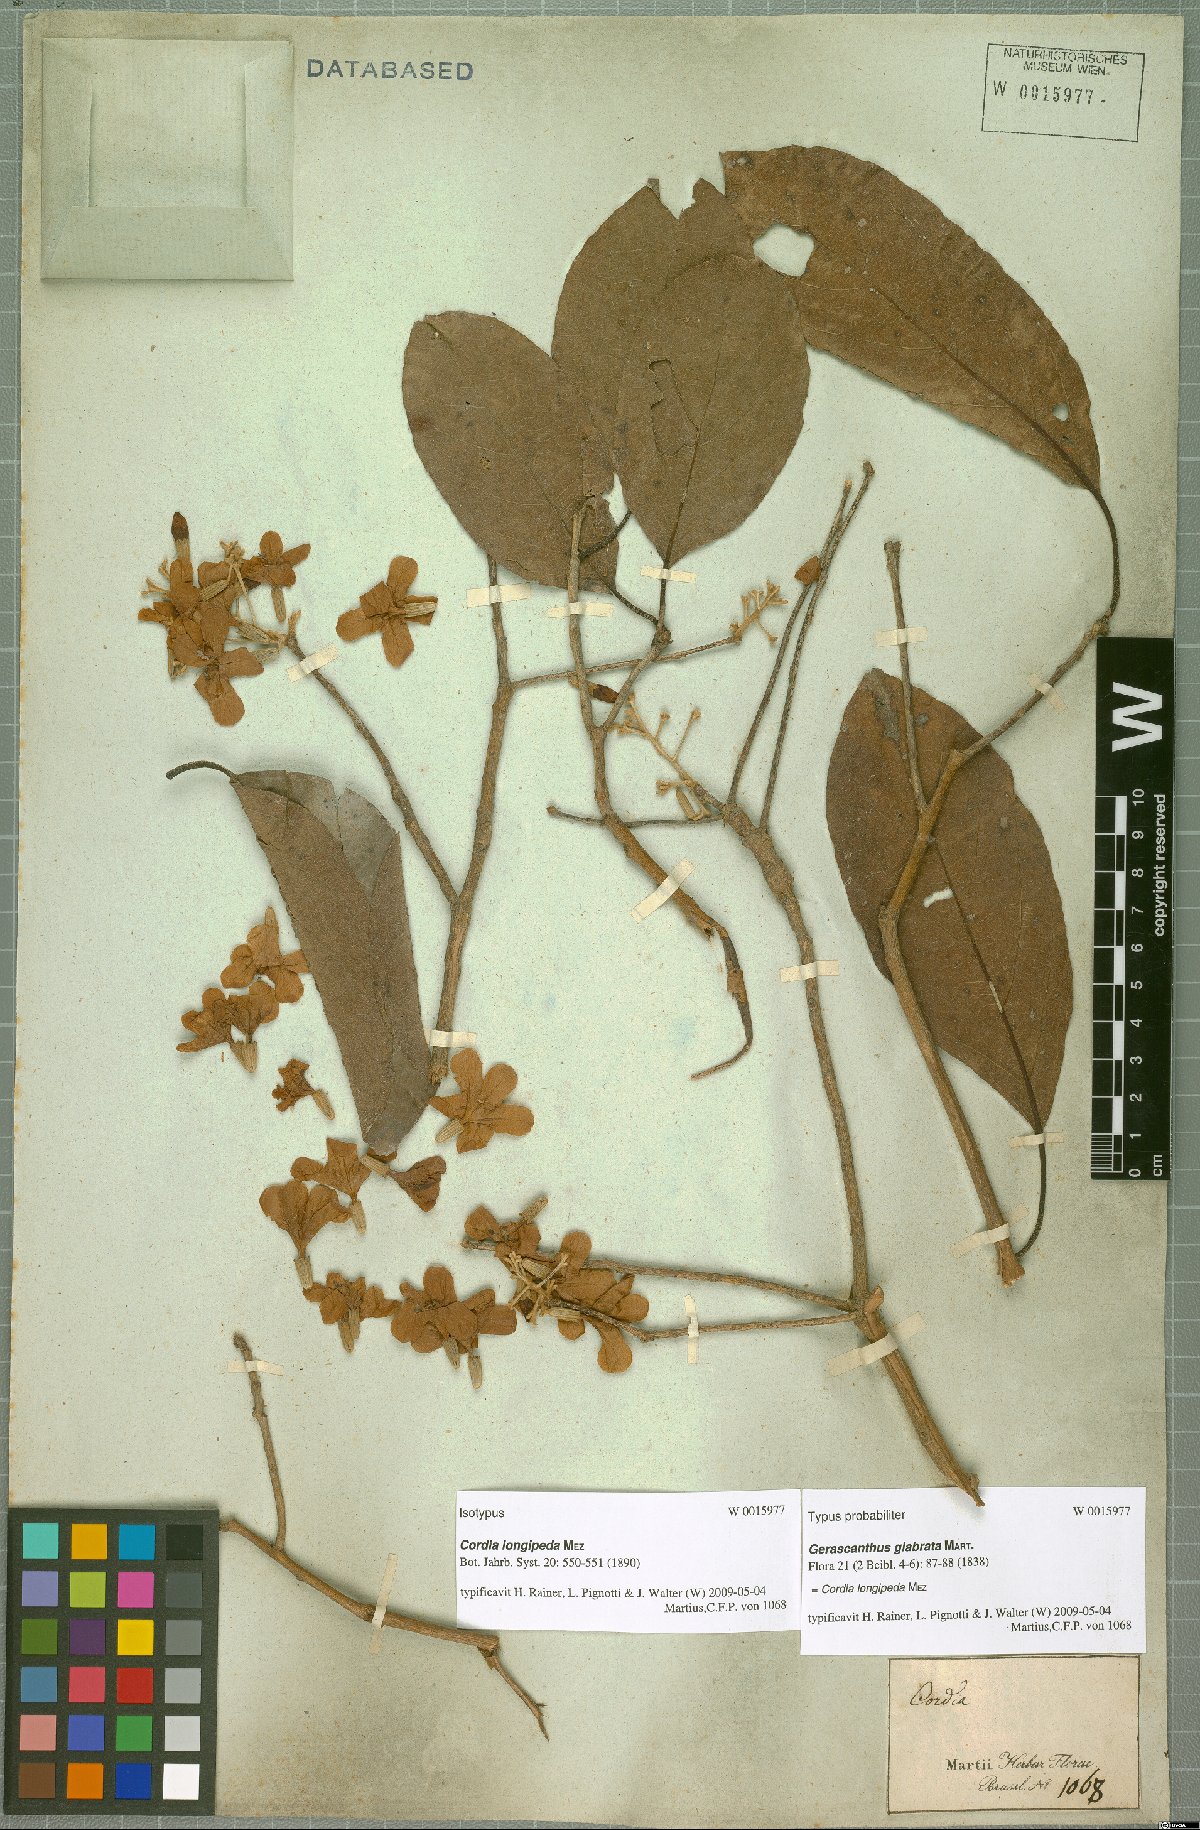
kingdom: Plantae
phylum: Tracheophyta
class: Magnoliopsida
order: Boraginales
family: Cordiaceae
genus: Cordia
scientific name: Cordia glabrata
